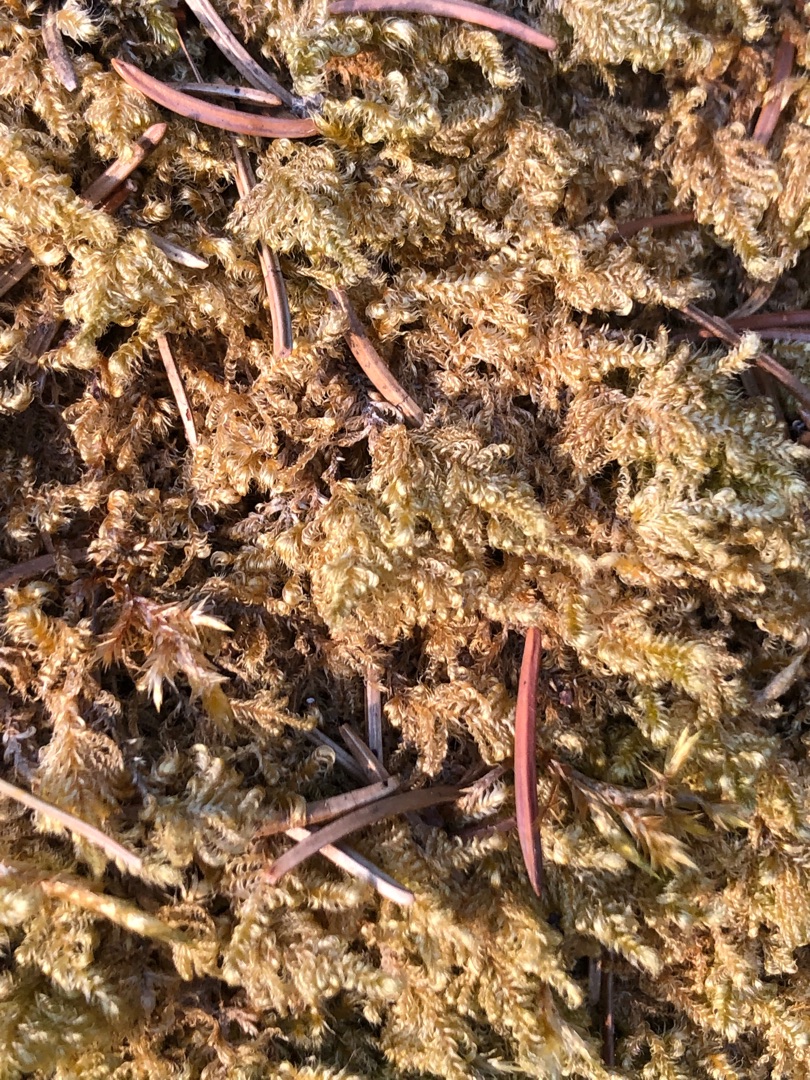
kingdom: Plantae
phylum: Bryophyta
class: Bryopsida
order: Hypnales
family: Myuriaceae
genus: Ctenidium
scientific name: Ctenidium molluscum
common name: Kalk-blødmos
